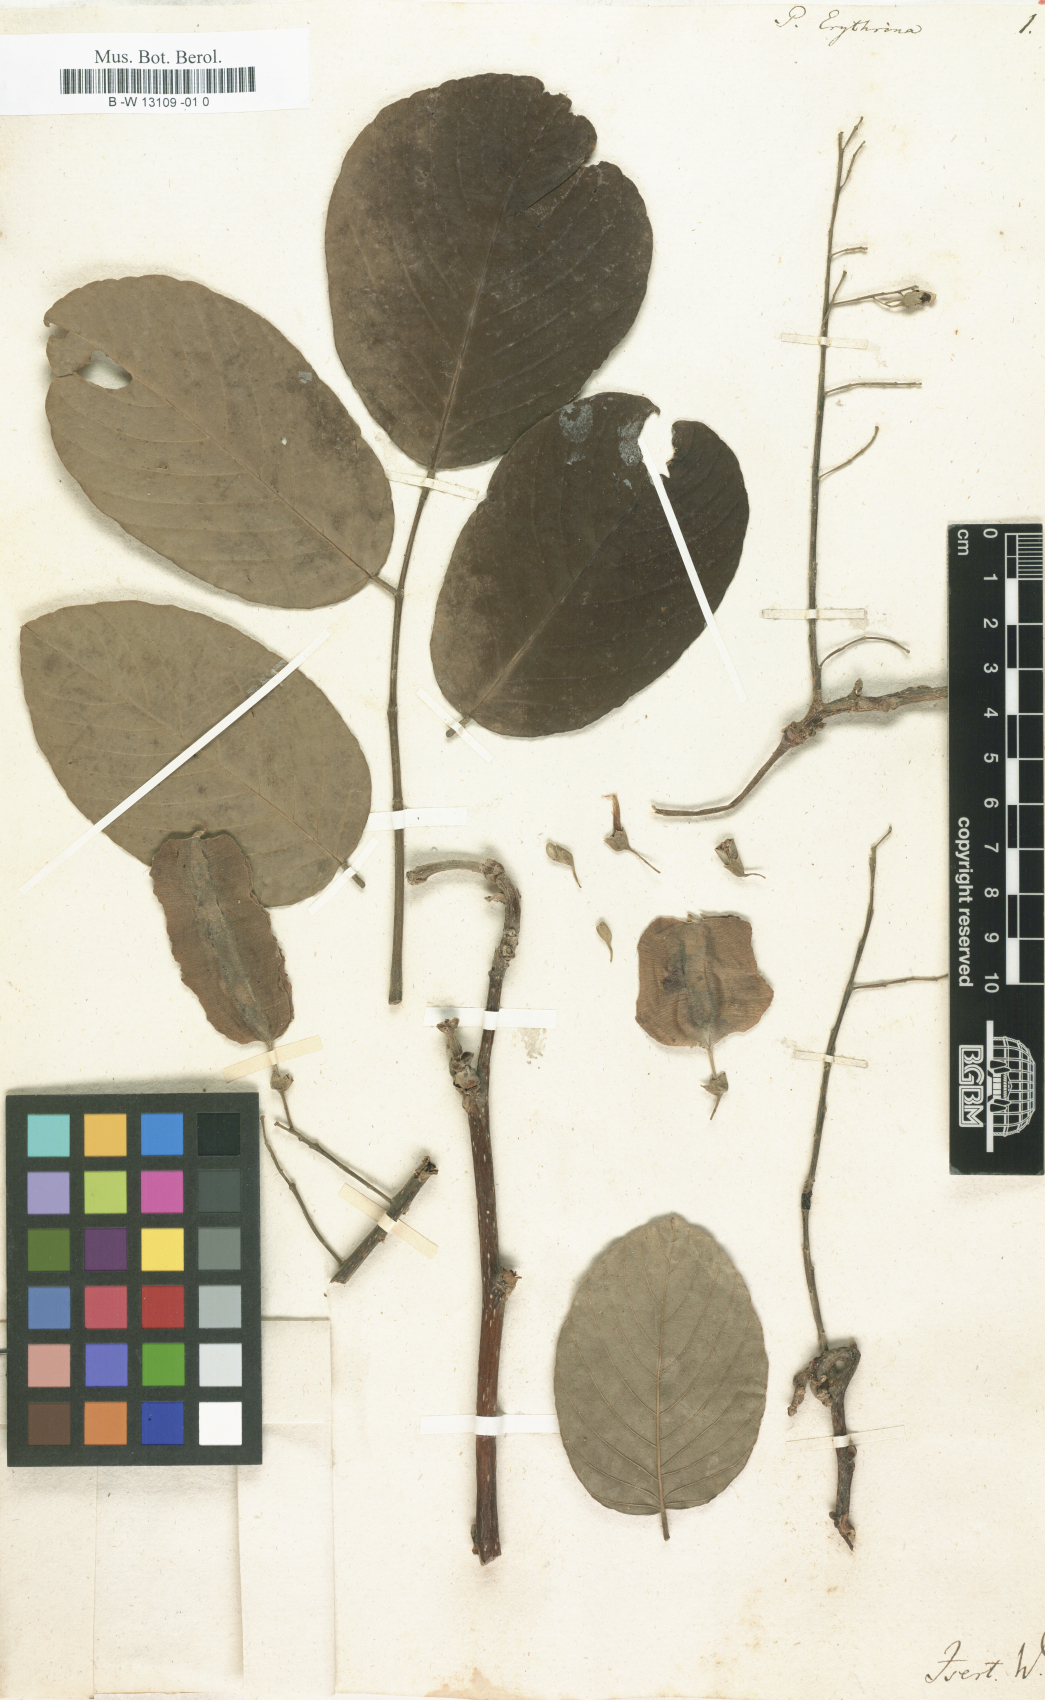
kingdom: Plantae
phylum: Tracheophyta
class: Magnoliopsida
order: Fabales
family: Fabaceae
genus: Piscidia
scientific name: Piscidia piscipula
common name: Florida fishpoison tree
